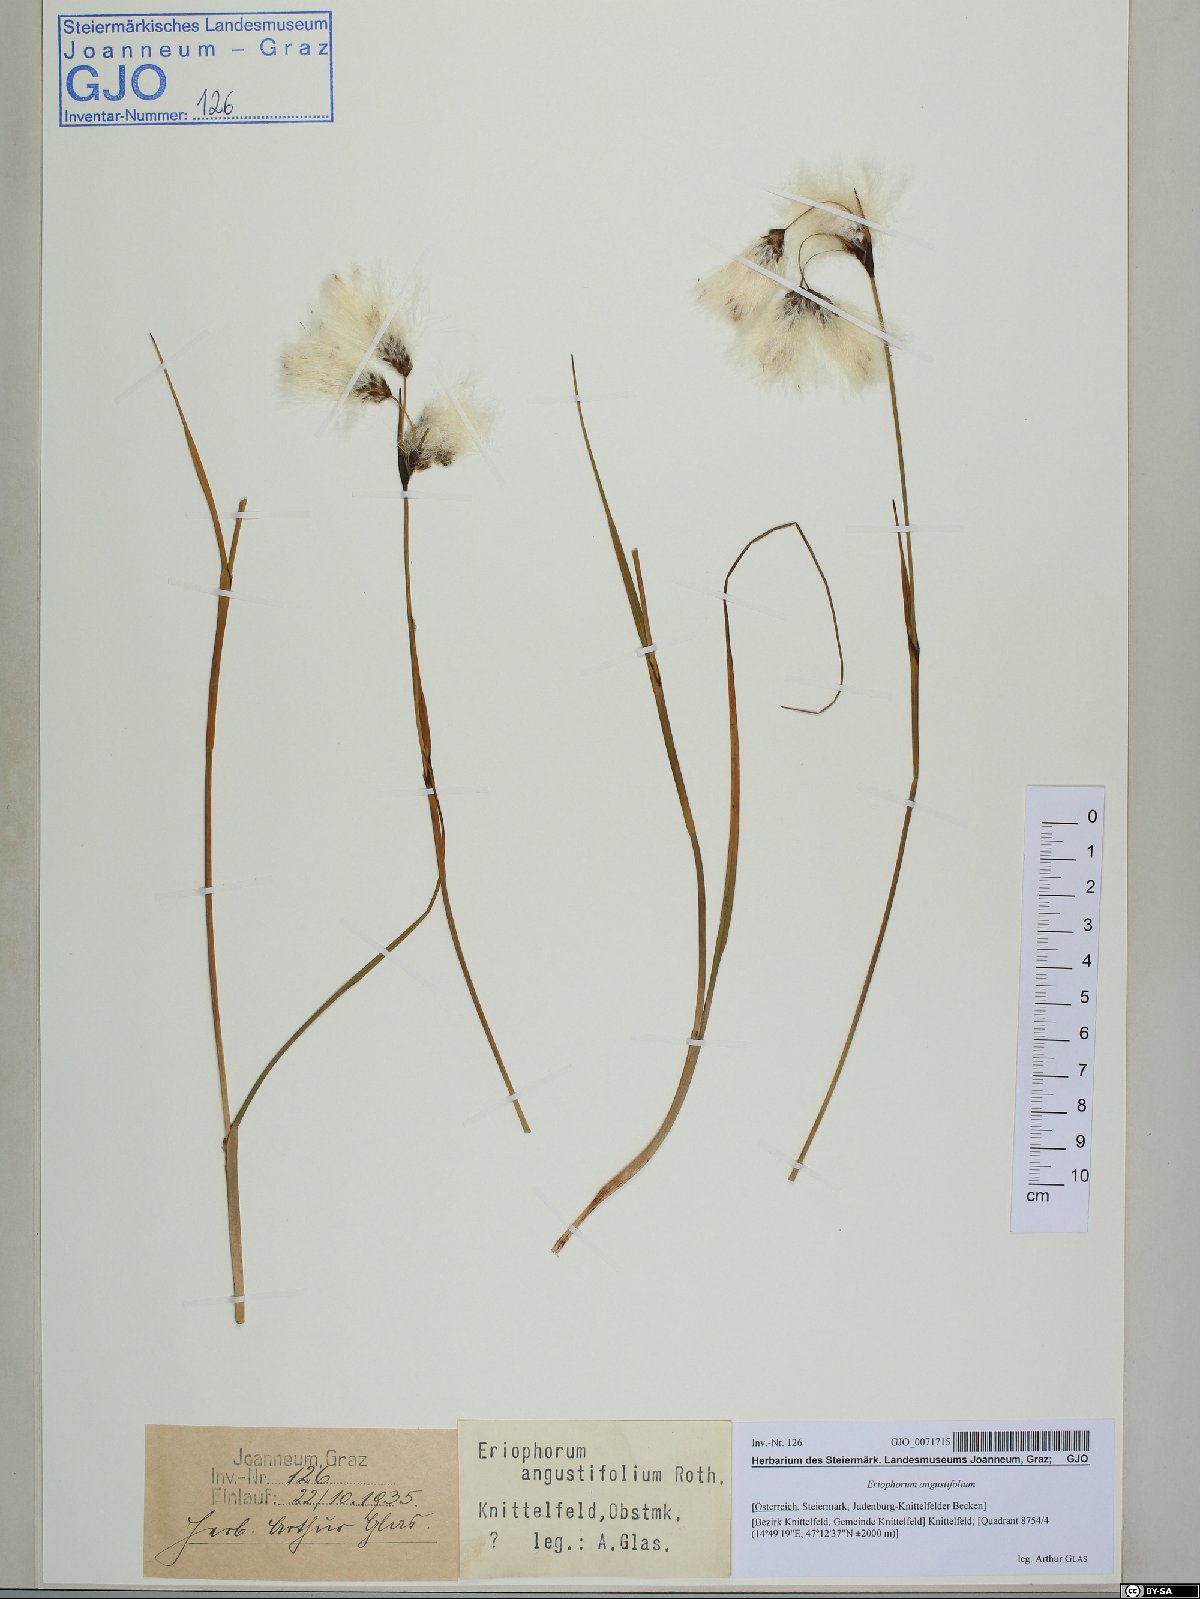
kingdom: Plantae
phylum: Tracheophyta
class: Liliopsida
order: Poales
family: Cyperaceae
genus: Eriophorum
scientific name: Eriophorum angustifolium
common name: Common cottongrass
